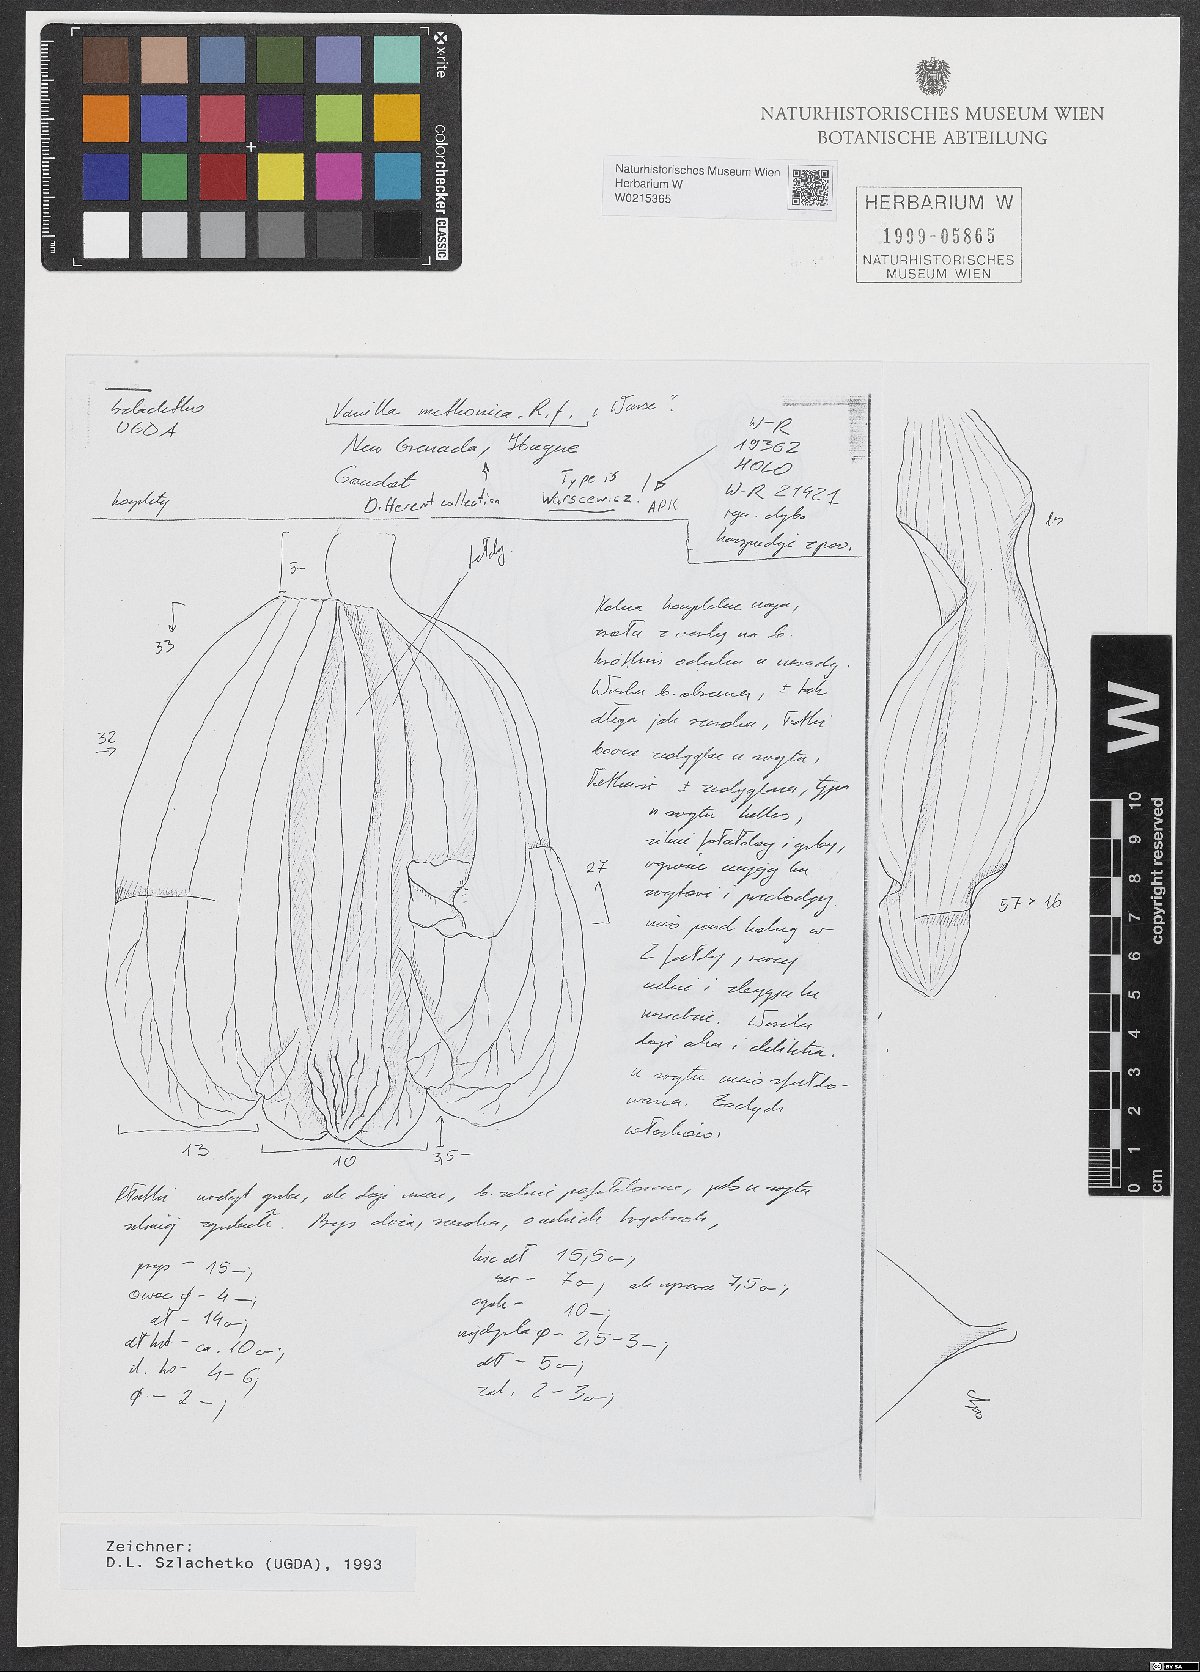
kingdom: Plantae
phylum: Tracheophyta
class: Liliopsida
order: Asparagales
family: Orchidaceae
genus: Vanilla
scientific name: Vanilla
